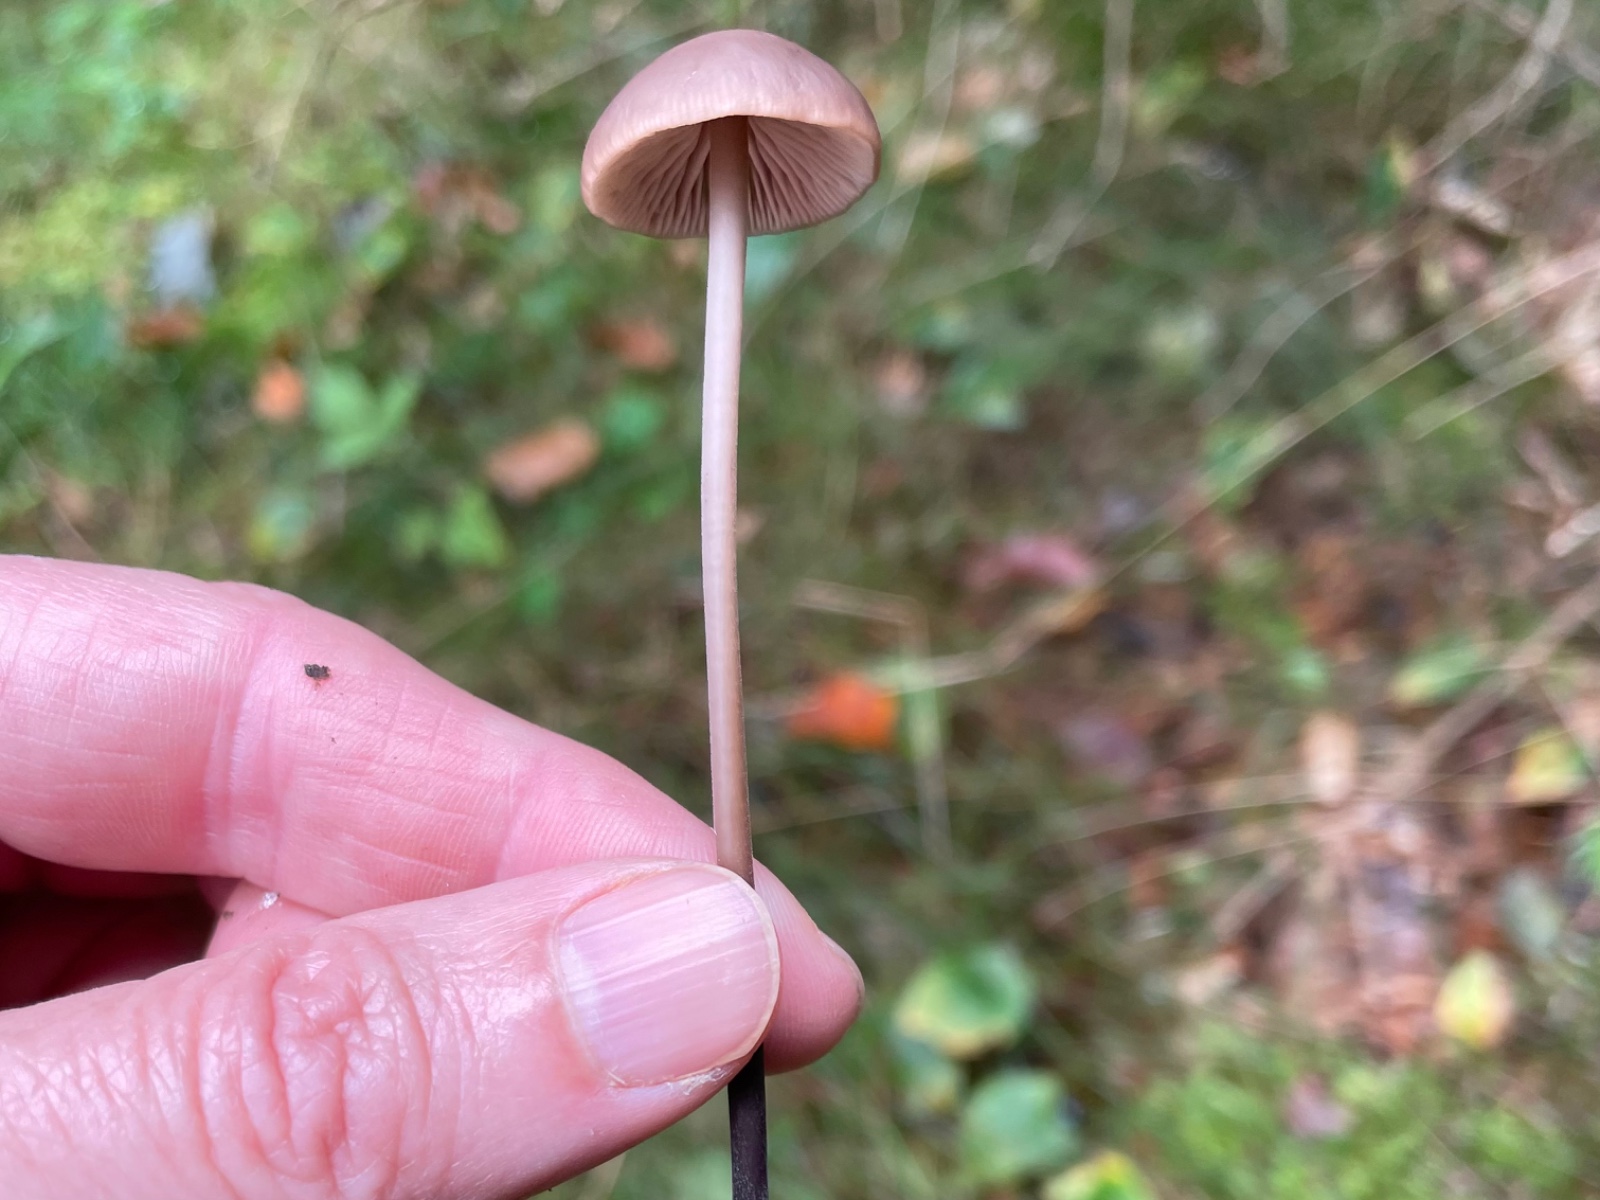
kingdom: Fungi
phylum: Basidiomycota
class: Agaricomycetes
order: Agaricales
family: Omphalotaceae
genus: Mycetinis
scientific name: Mycetinis alliaceus
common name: stor løghat
